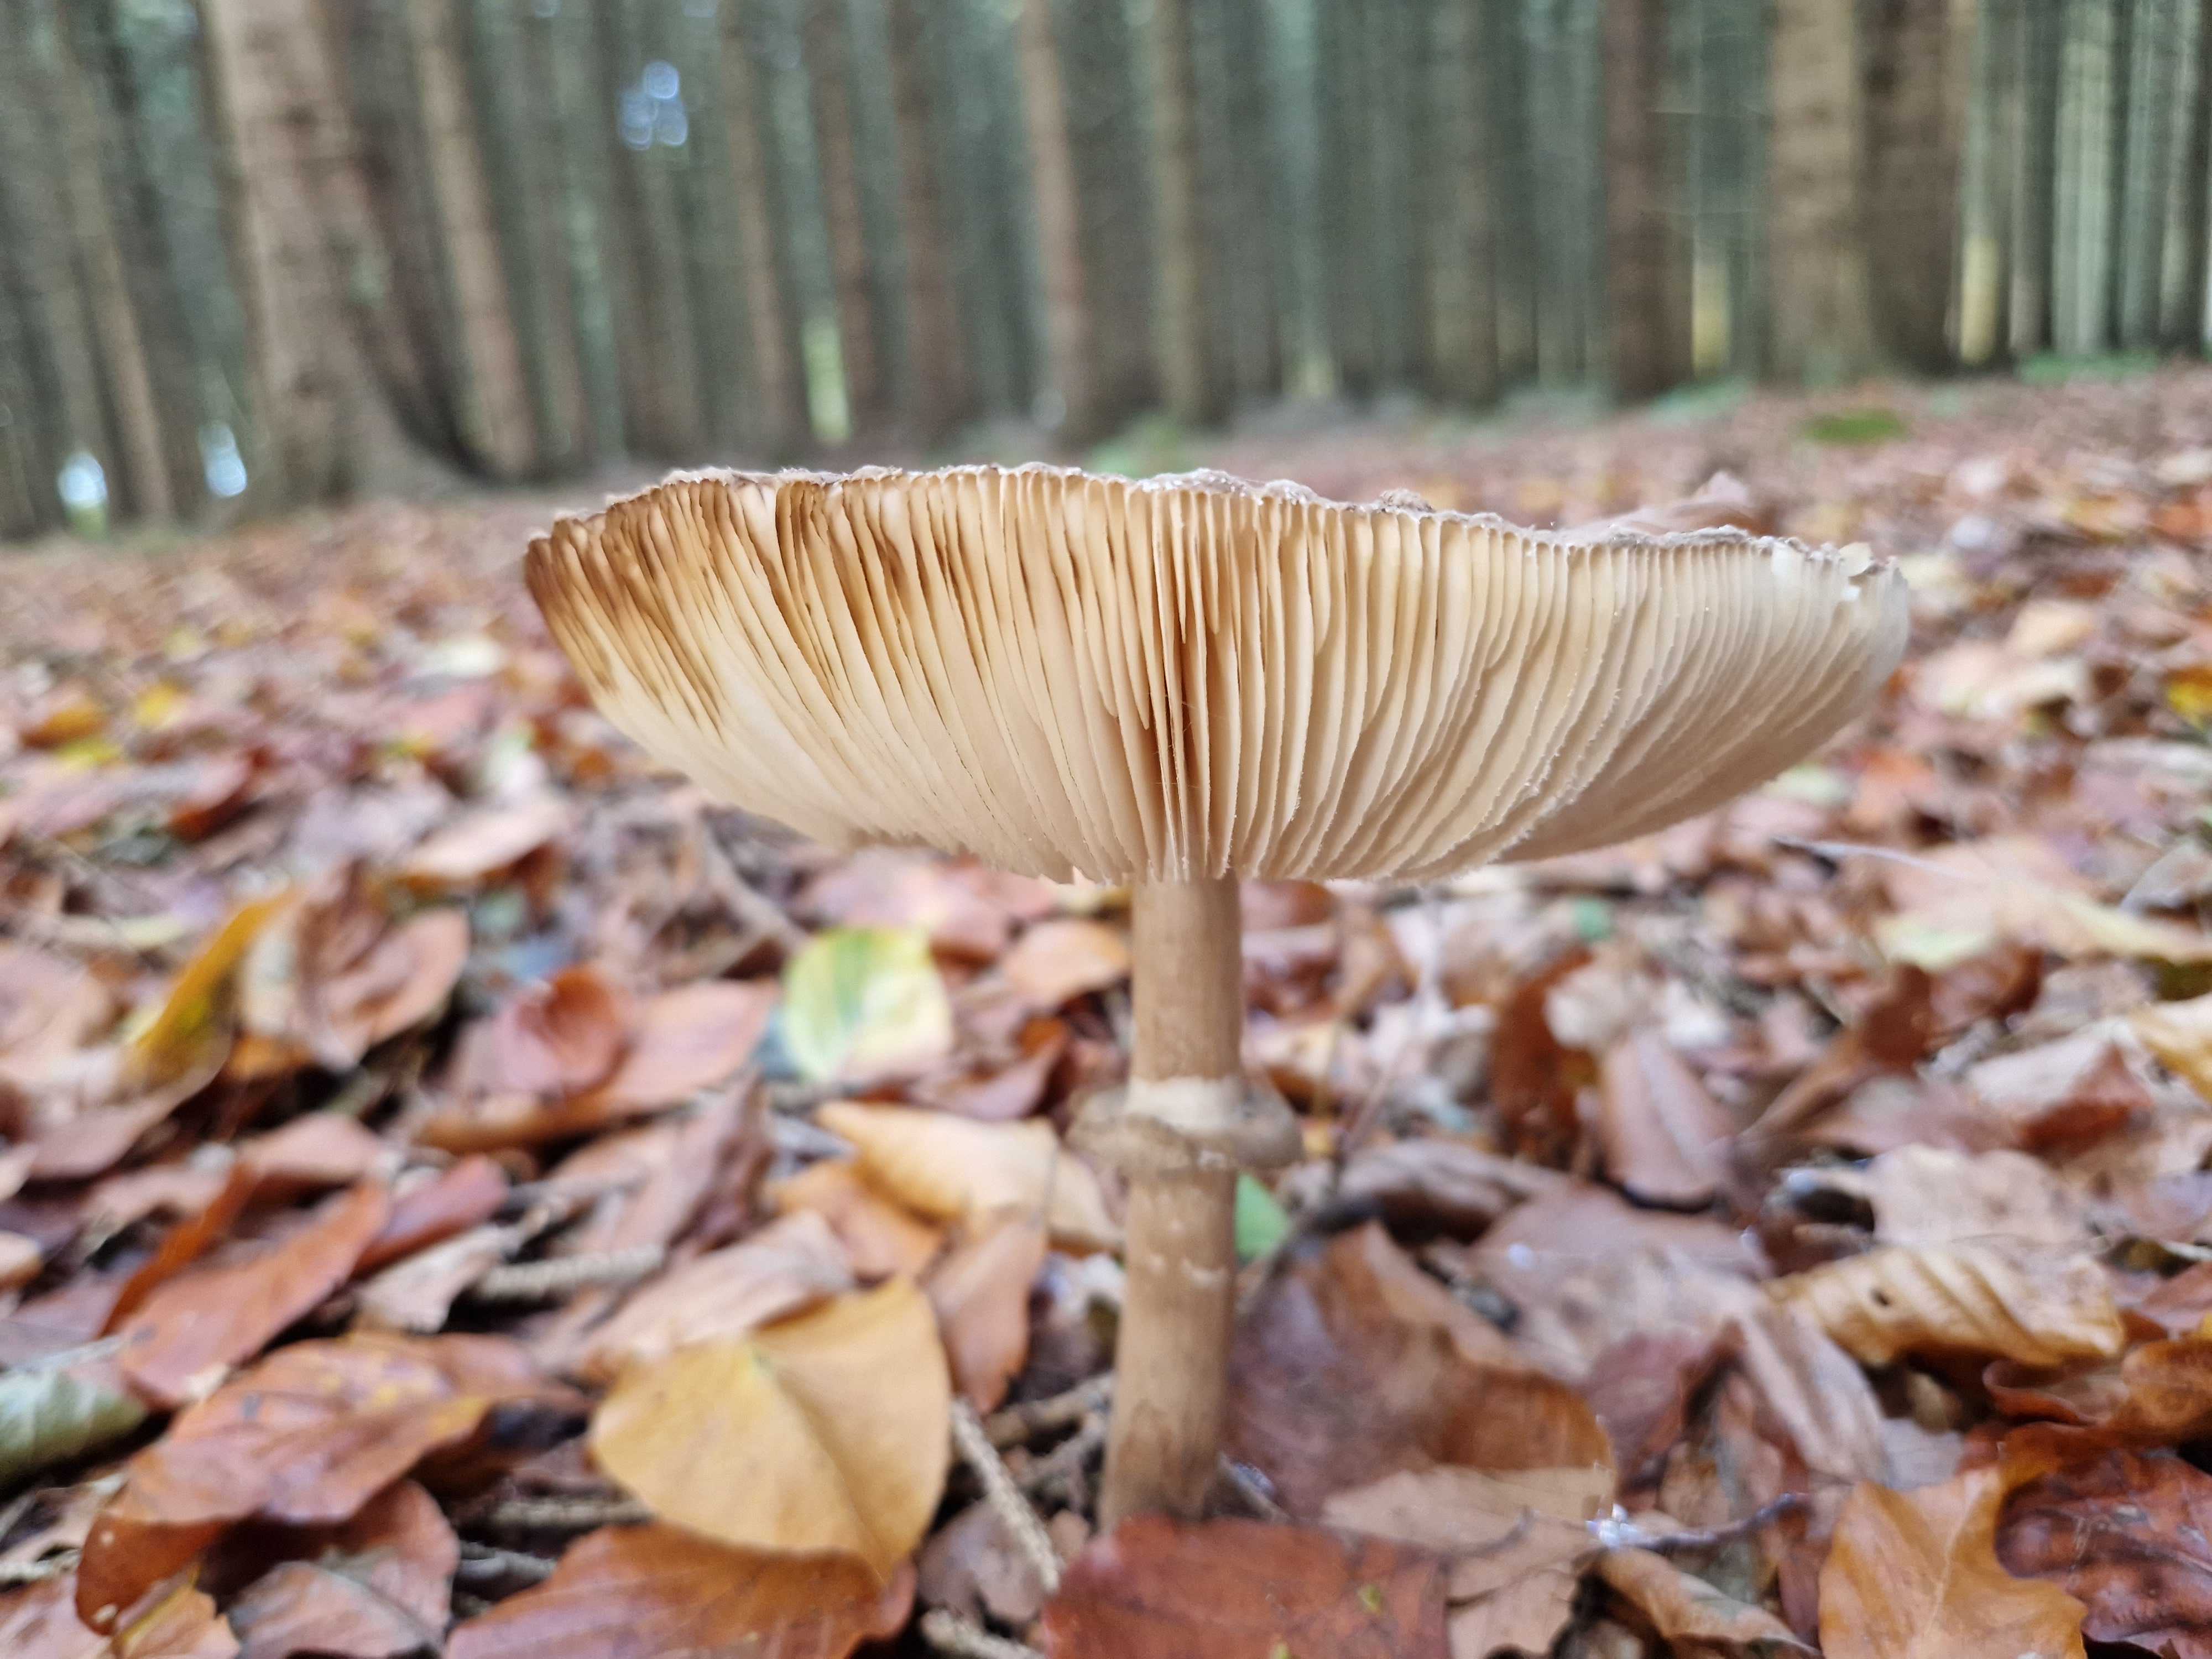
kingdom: Fungi
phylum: Basidiomycota
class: Agaricomycetes
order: Agaricales
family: Agaricaceae
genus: Chlorophyllum
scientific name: Chlorophyllum olivieri
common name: almindelig rabarberhat
